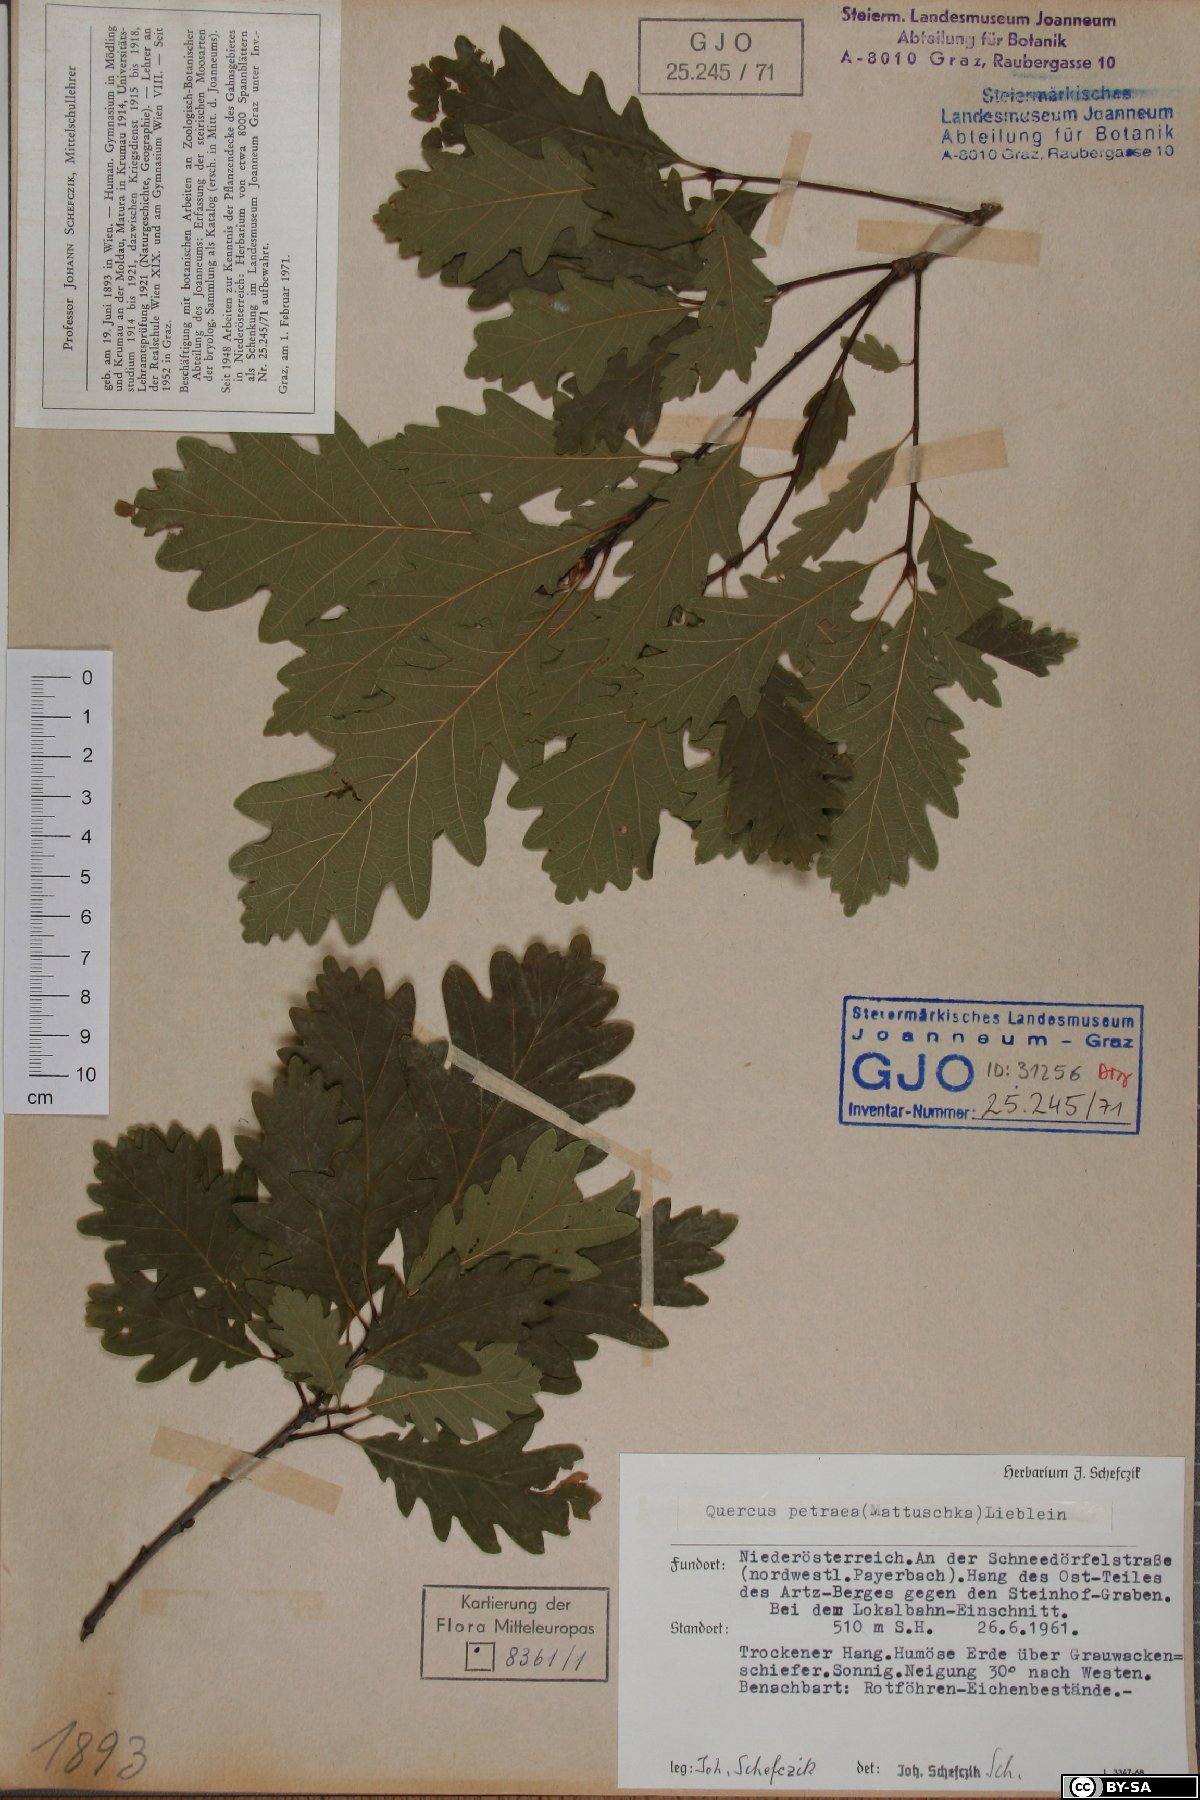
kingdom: Plantae
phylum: Tracheophyta
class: Magnoliopsida
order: Fagales
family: Fagaceae
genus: Quercus
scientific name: Quercus petraea
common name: Sessile oak
